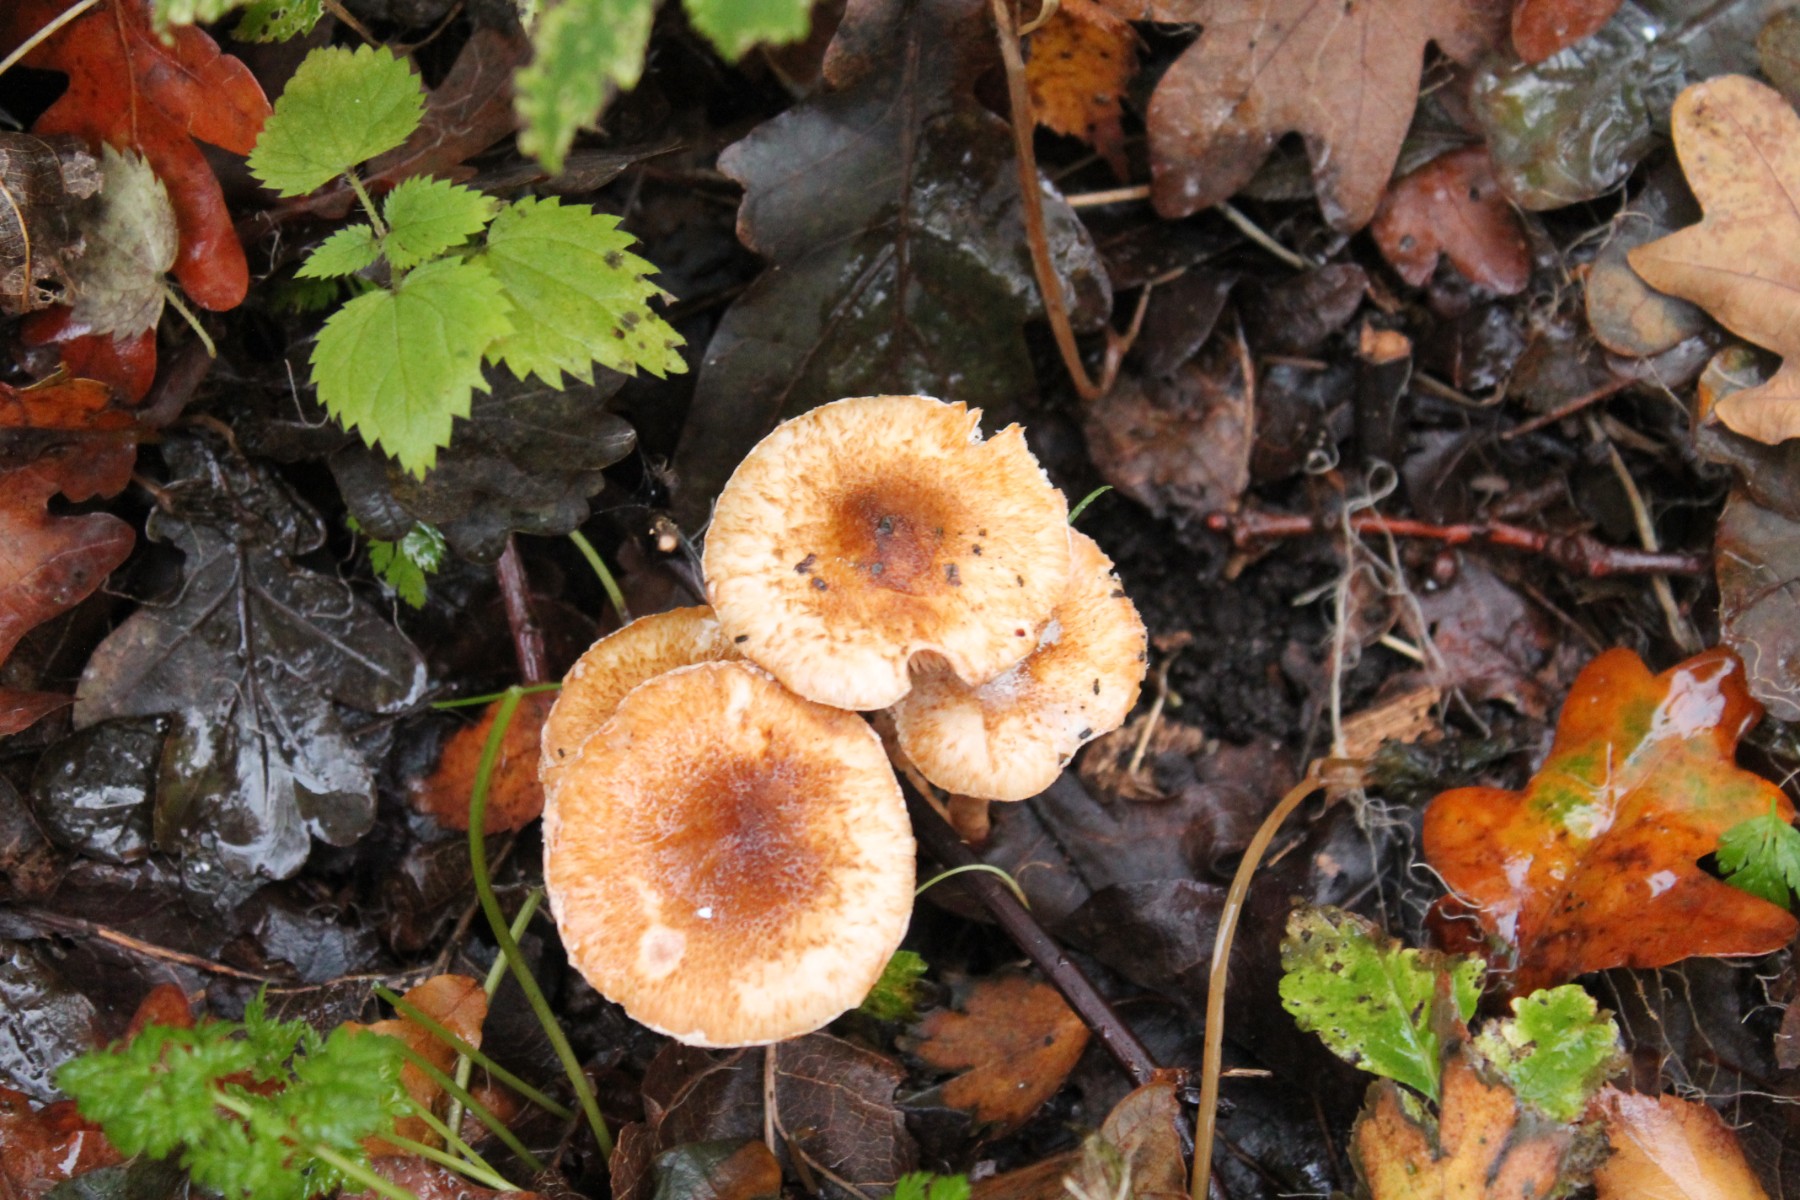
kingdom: Fungi
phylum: Basidiomycota
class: Agaricomycetes
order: Agaricales
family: Agaricaceae
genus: Lepiota
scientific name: Lepiota
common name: parasolhat
